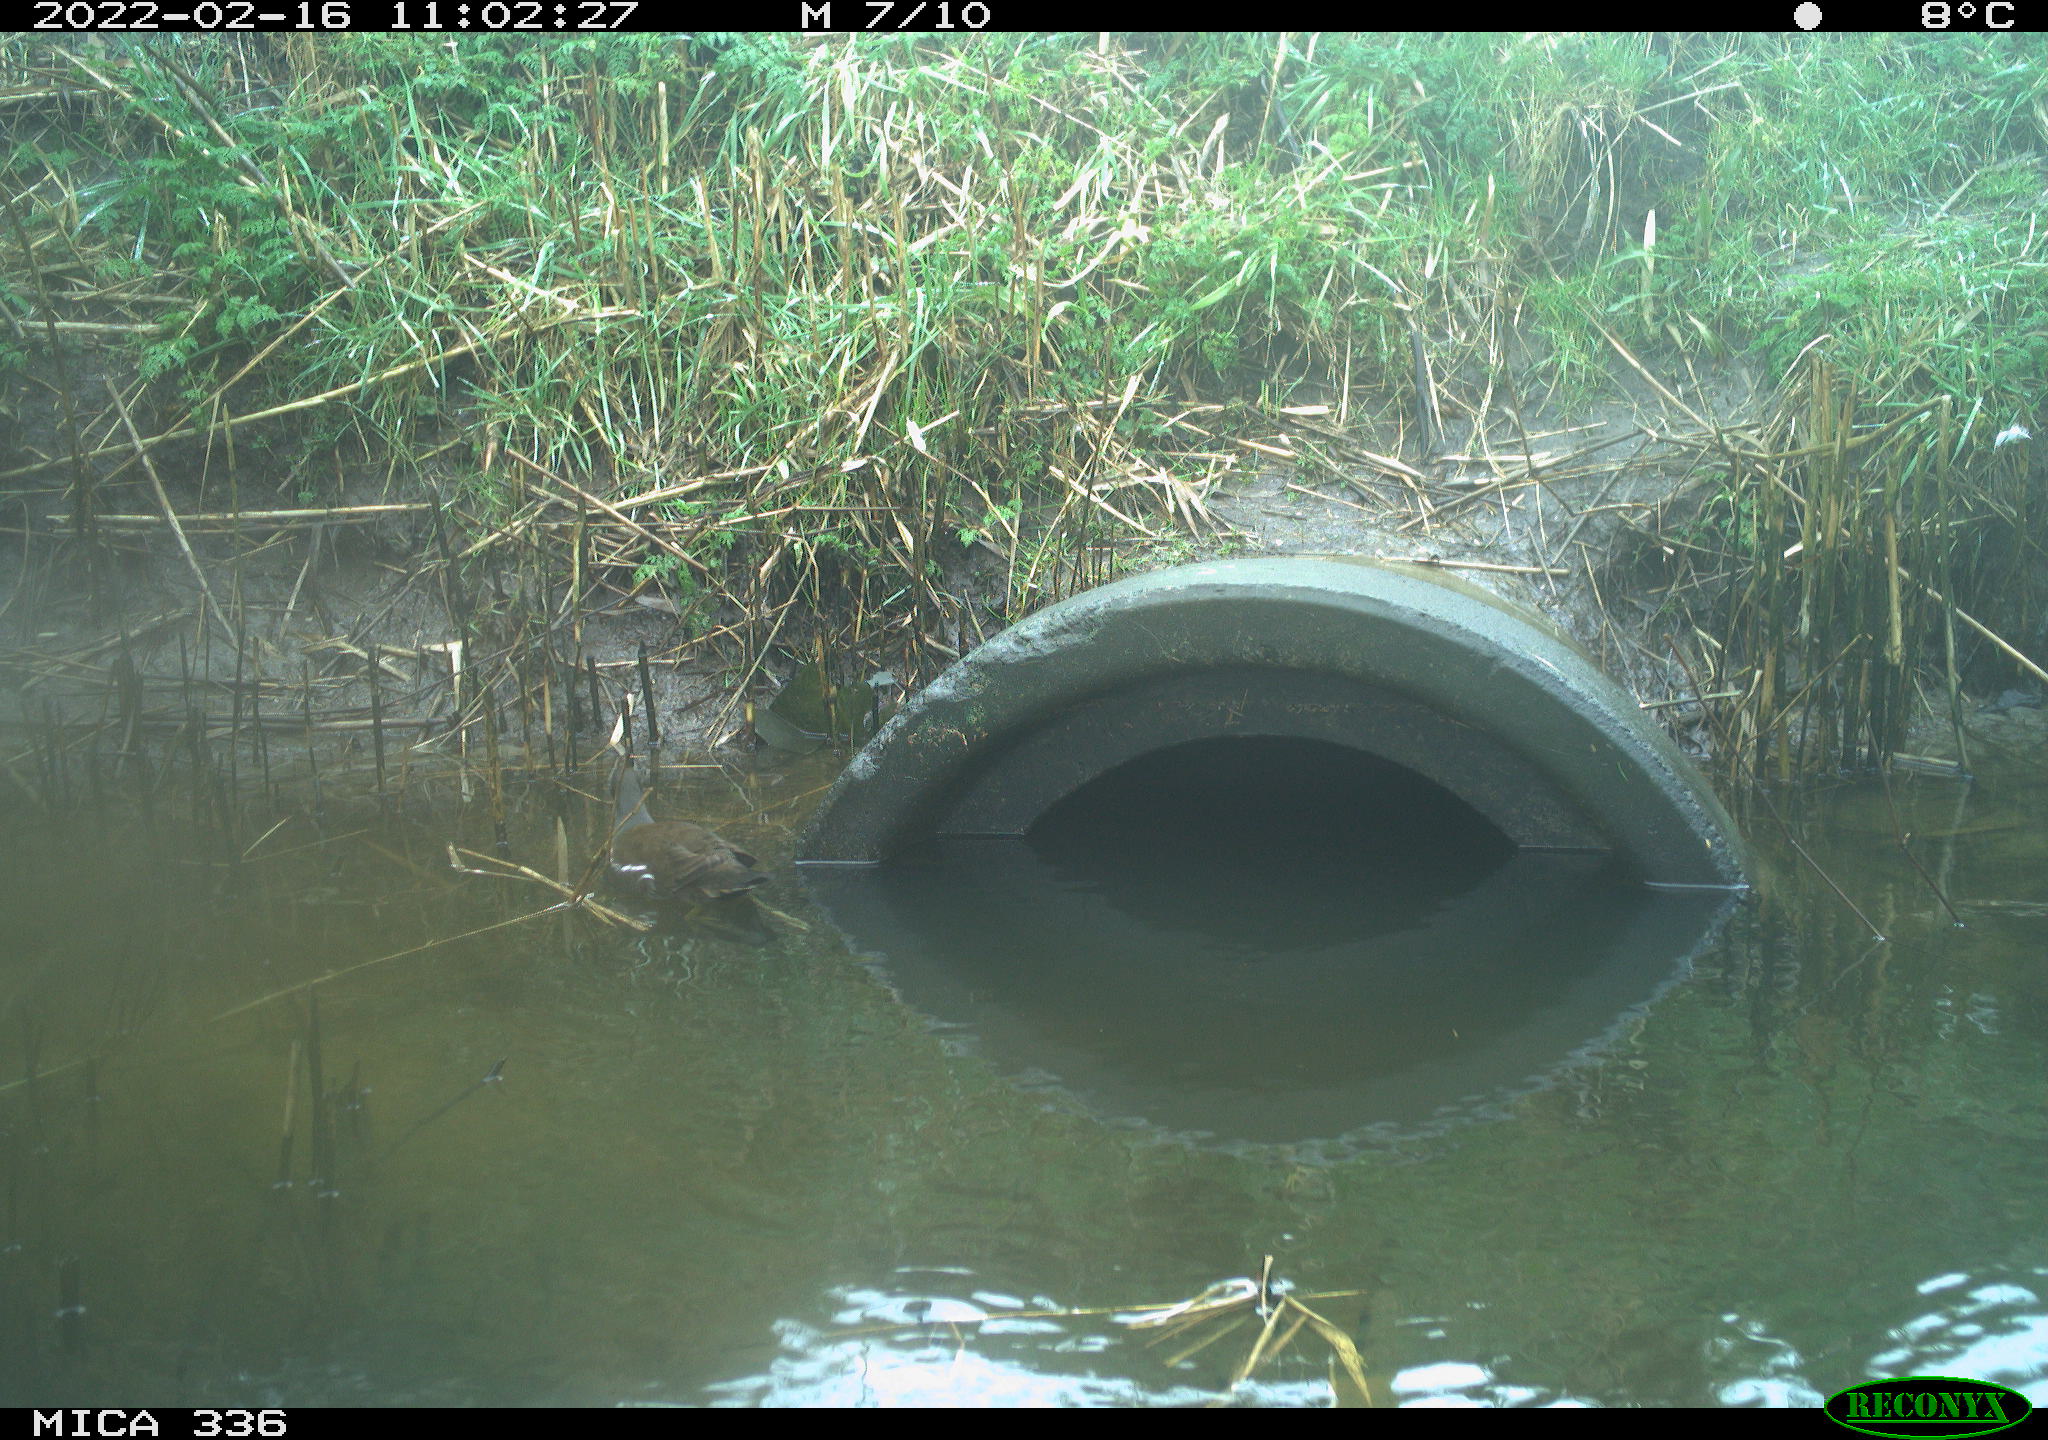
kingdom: Animalia
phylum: Chordata
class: Aves
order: Gruiformes
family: Rallidae
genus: Gallinula
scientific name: Gallinula chloropus
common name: Common moorhen
